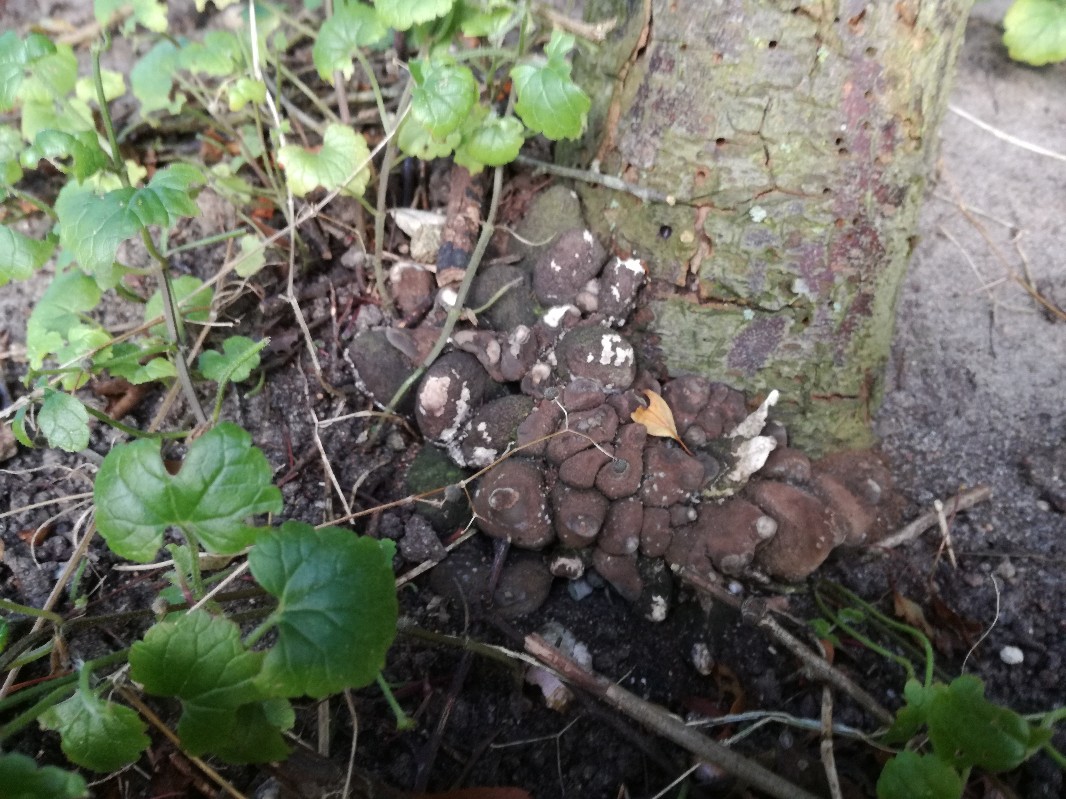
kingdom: Fungi
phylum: Ascomycota
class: Sordariomycetes
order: Xylariales
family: Xylariaceae
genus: Xylaria
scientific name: Xylaria polymorpha
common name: kølle-stødsvamp
